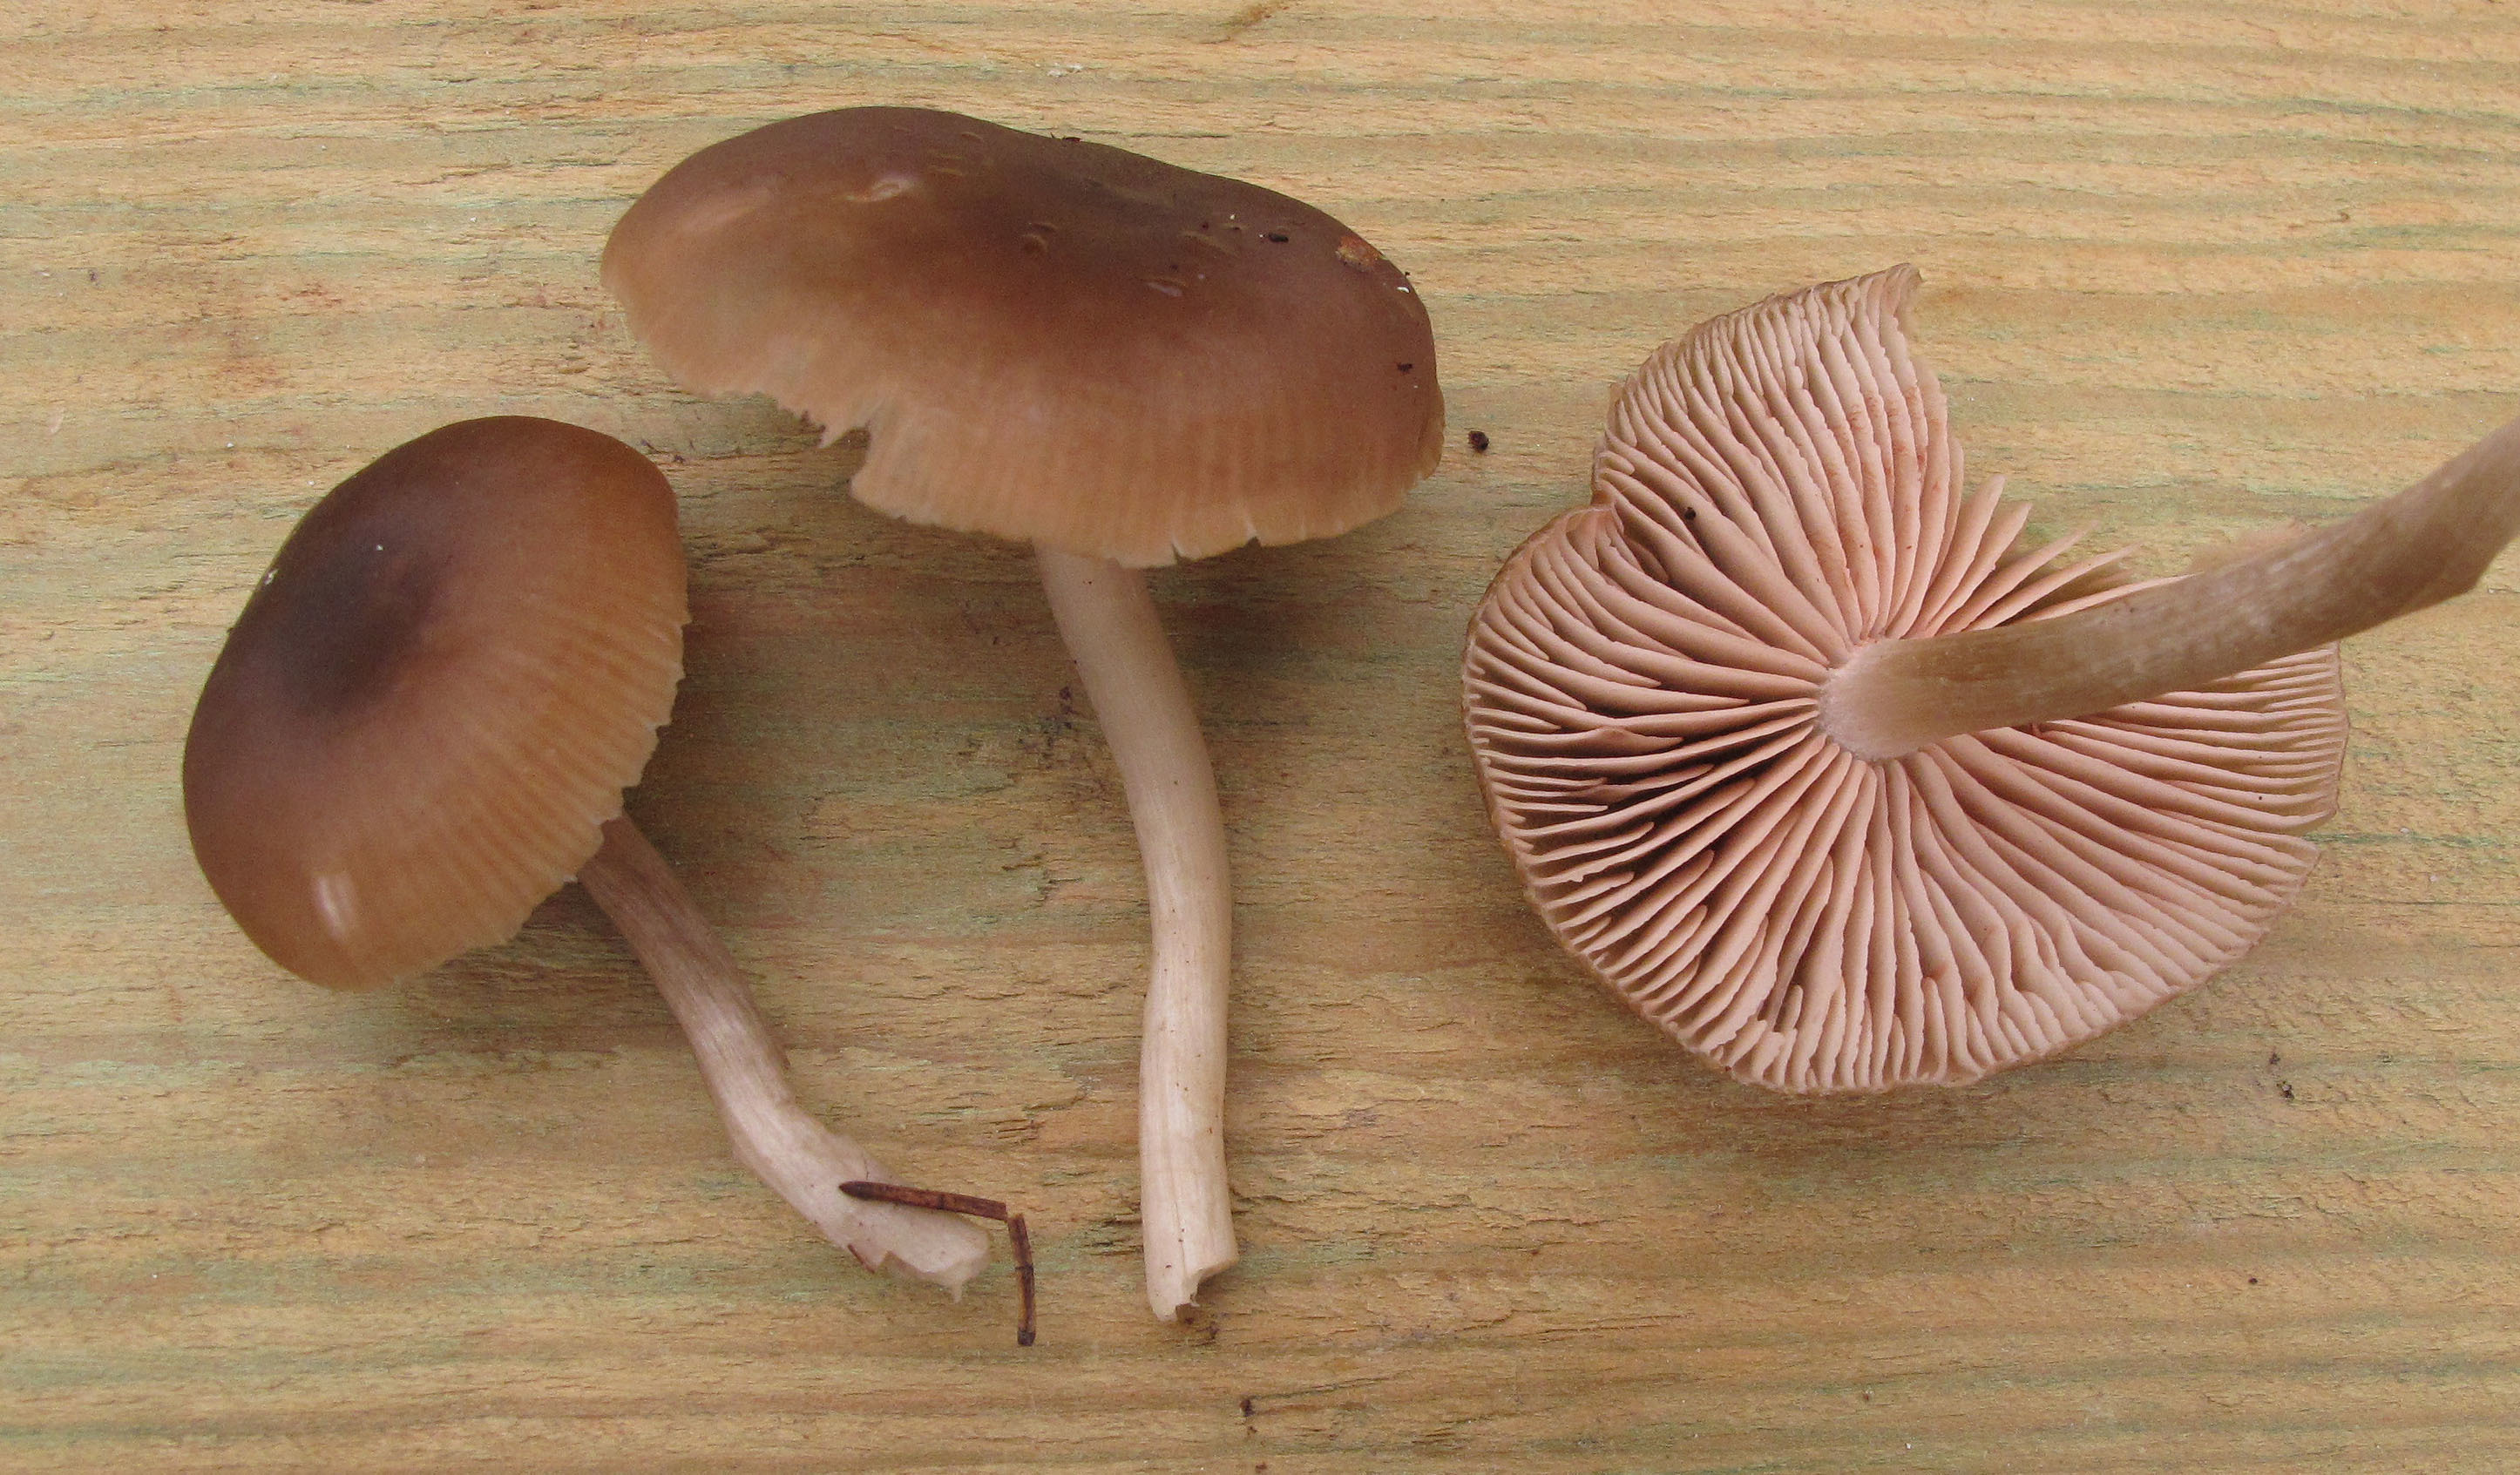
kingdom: Fungi
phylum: Basidiomycota
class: Agaricomycetes
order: Agaricales
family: Entolomataceae
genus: Entoloma
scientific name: Entoloma politum
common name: Nitrous pinkgill
